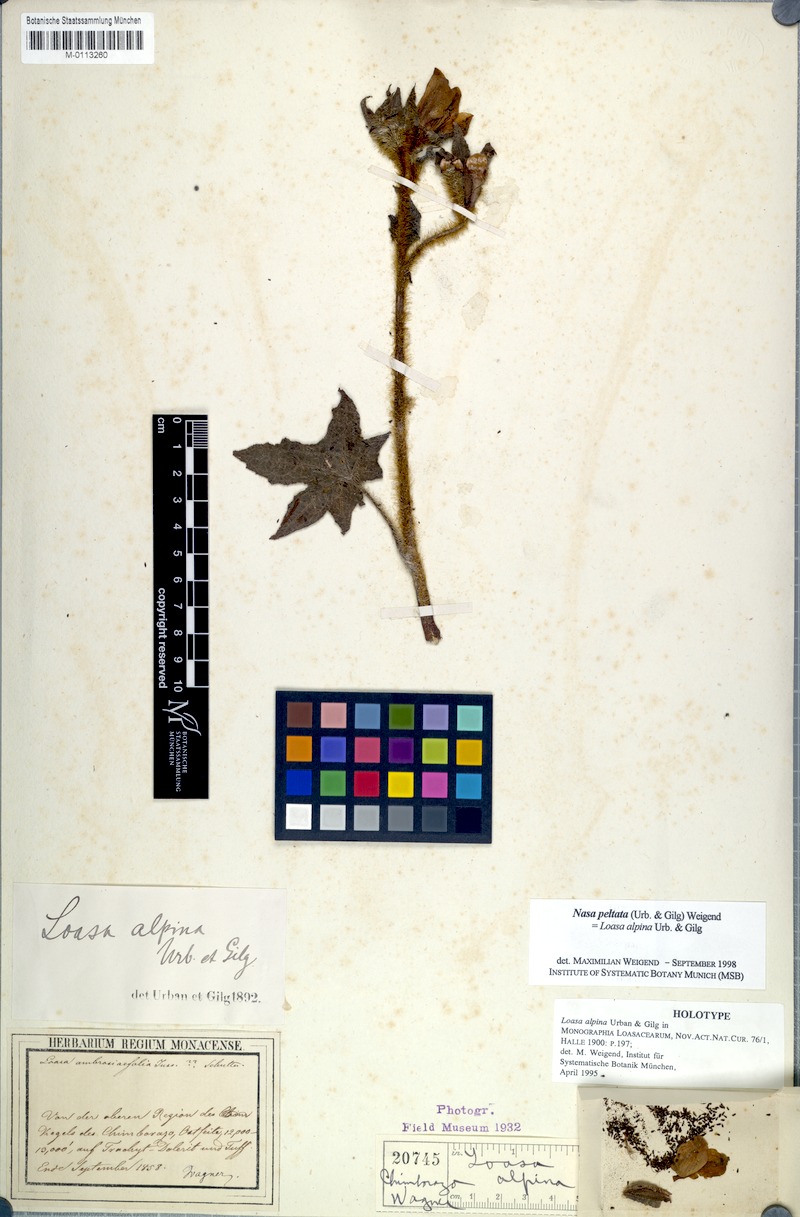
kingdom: Plantae
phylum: Tracheophyta
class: Magnoliopsida
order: Cornales
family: Loasaceae
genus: Nasa
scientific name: Nasa peltata
